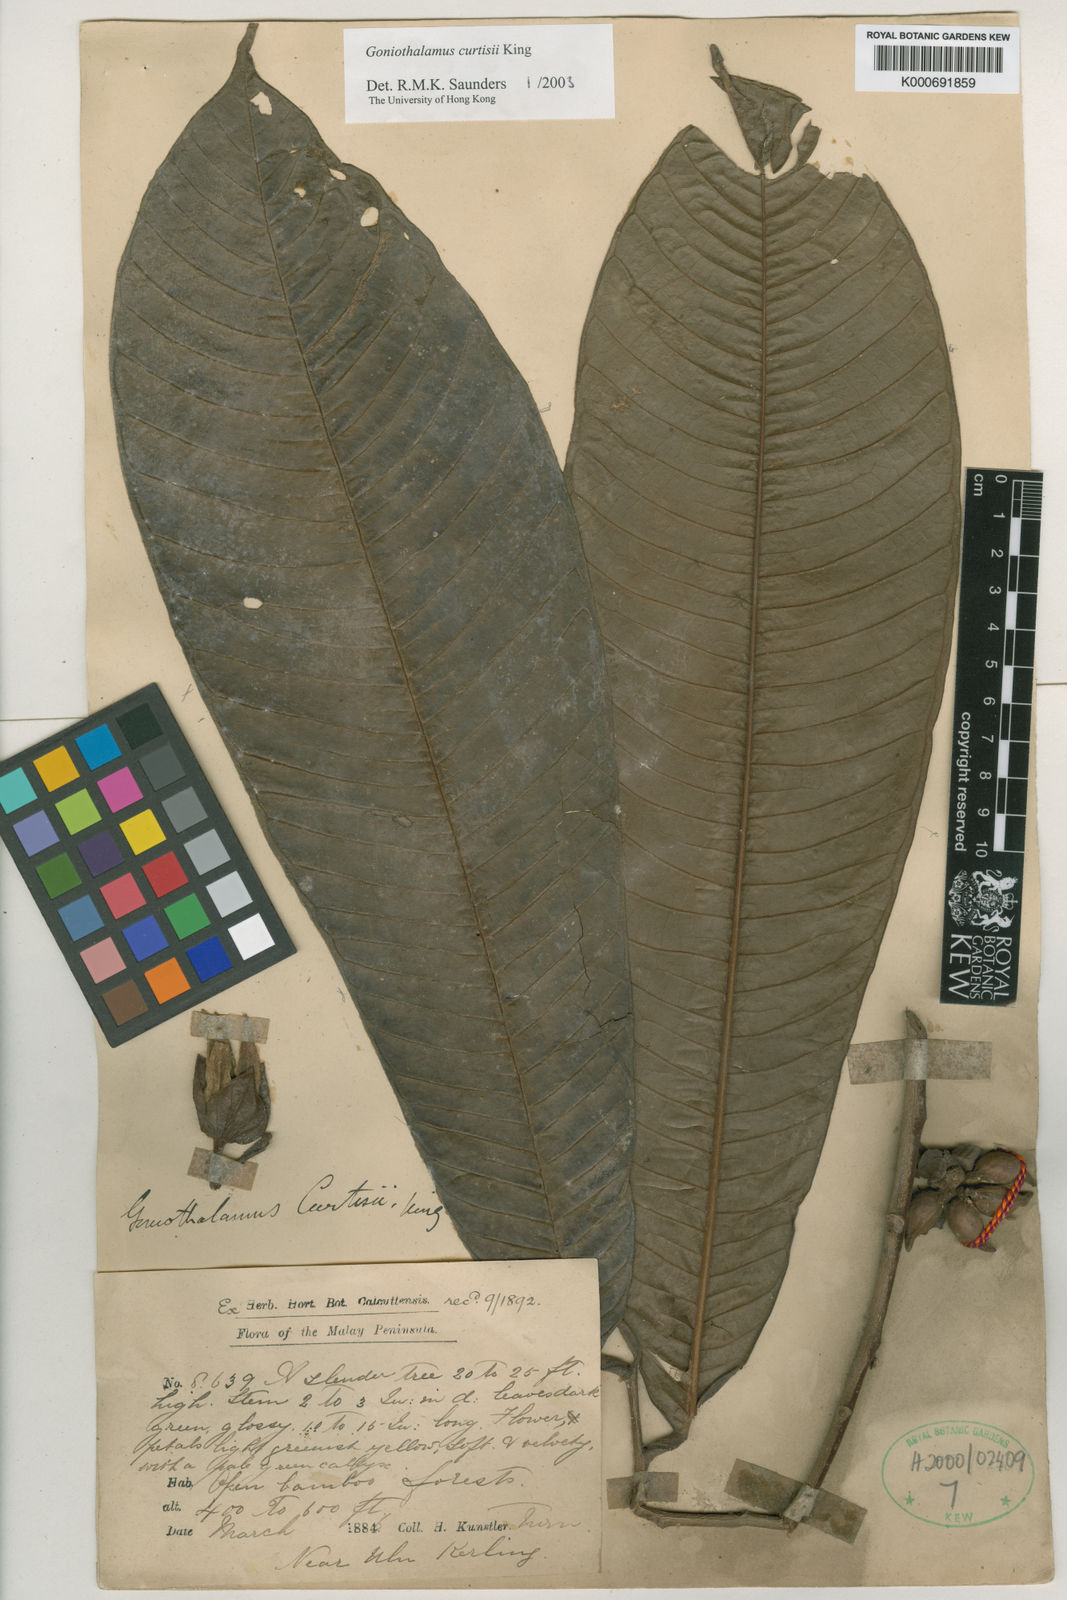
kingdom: Plantae
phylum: Tracheophyta
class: Magnoliopsida
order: Magnoliales
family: Annonaceae
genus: Goniothalamus
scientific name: Goniothalamus curtisii
